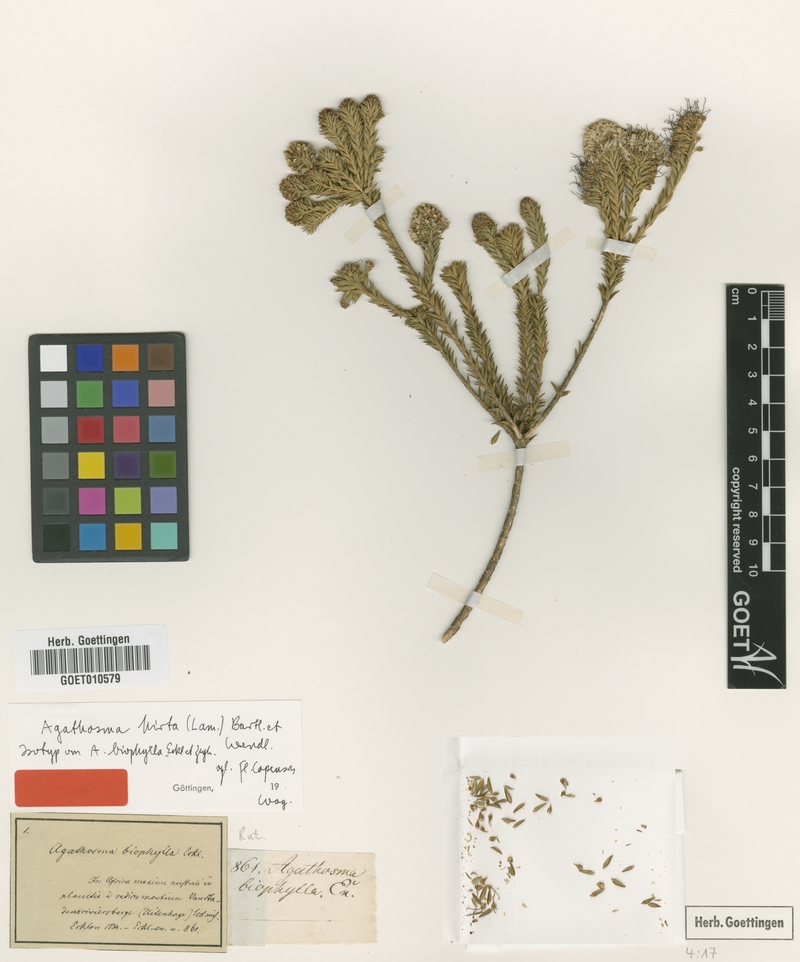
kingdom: Plantae
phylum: Tracheophyta
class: Magnoliopsida
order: Sapindales
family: Rutaceae
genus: Agathosma
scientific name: Agathosma adenocaulis
